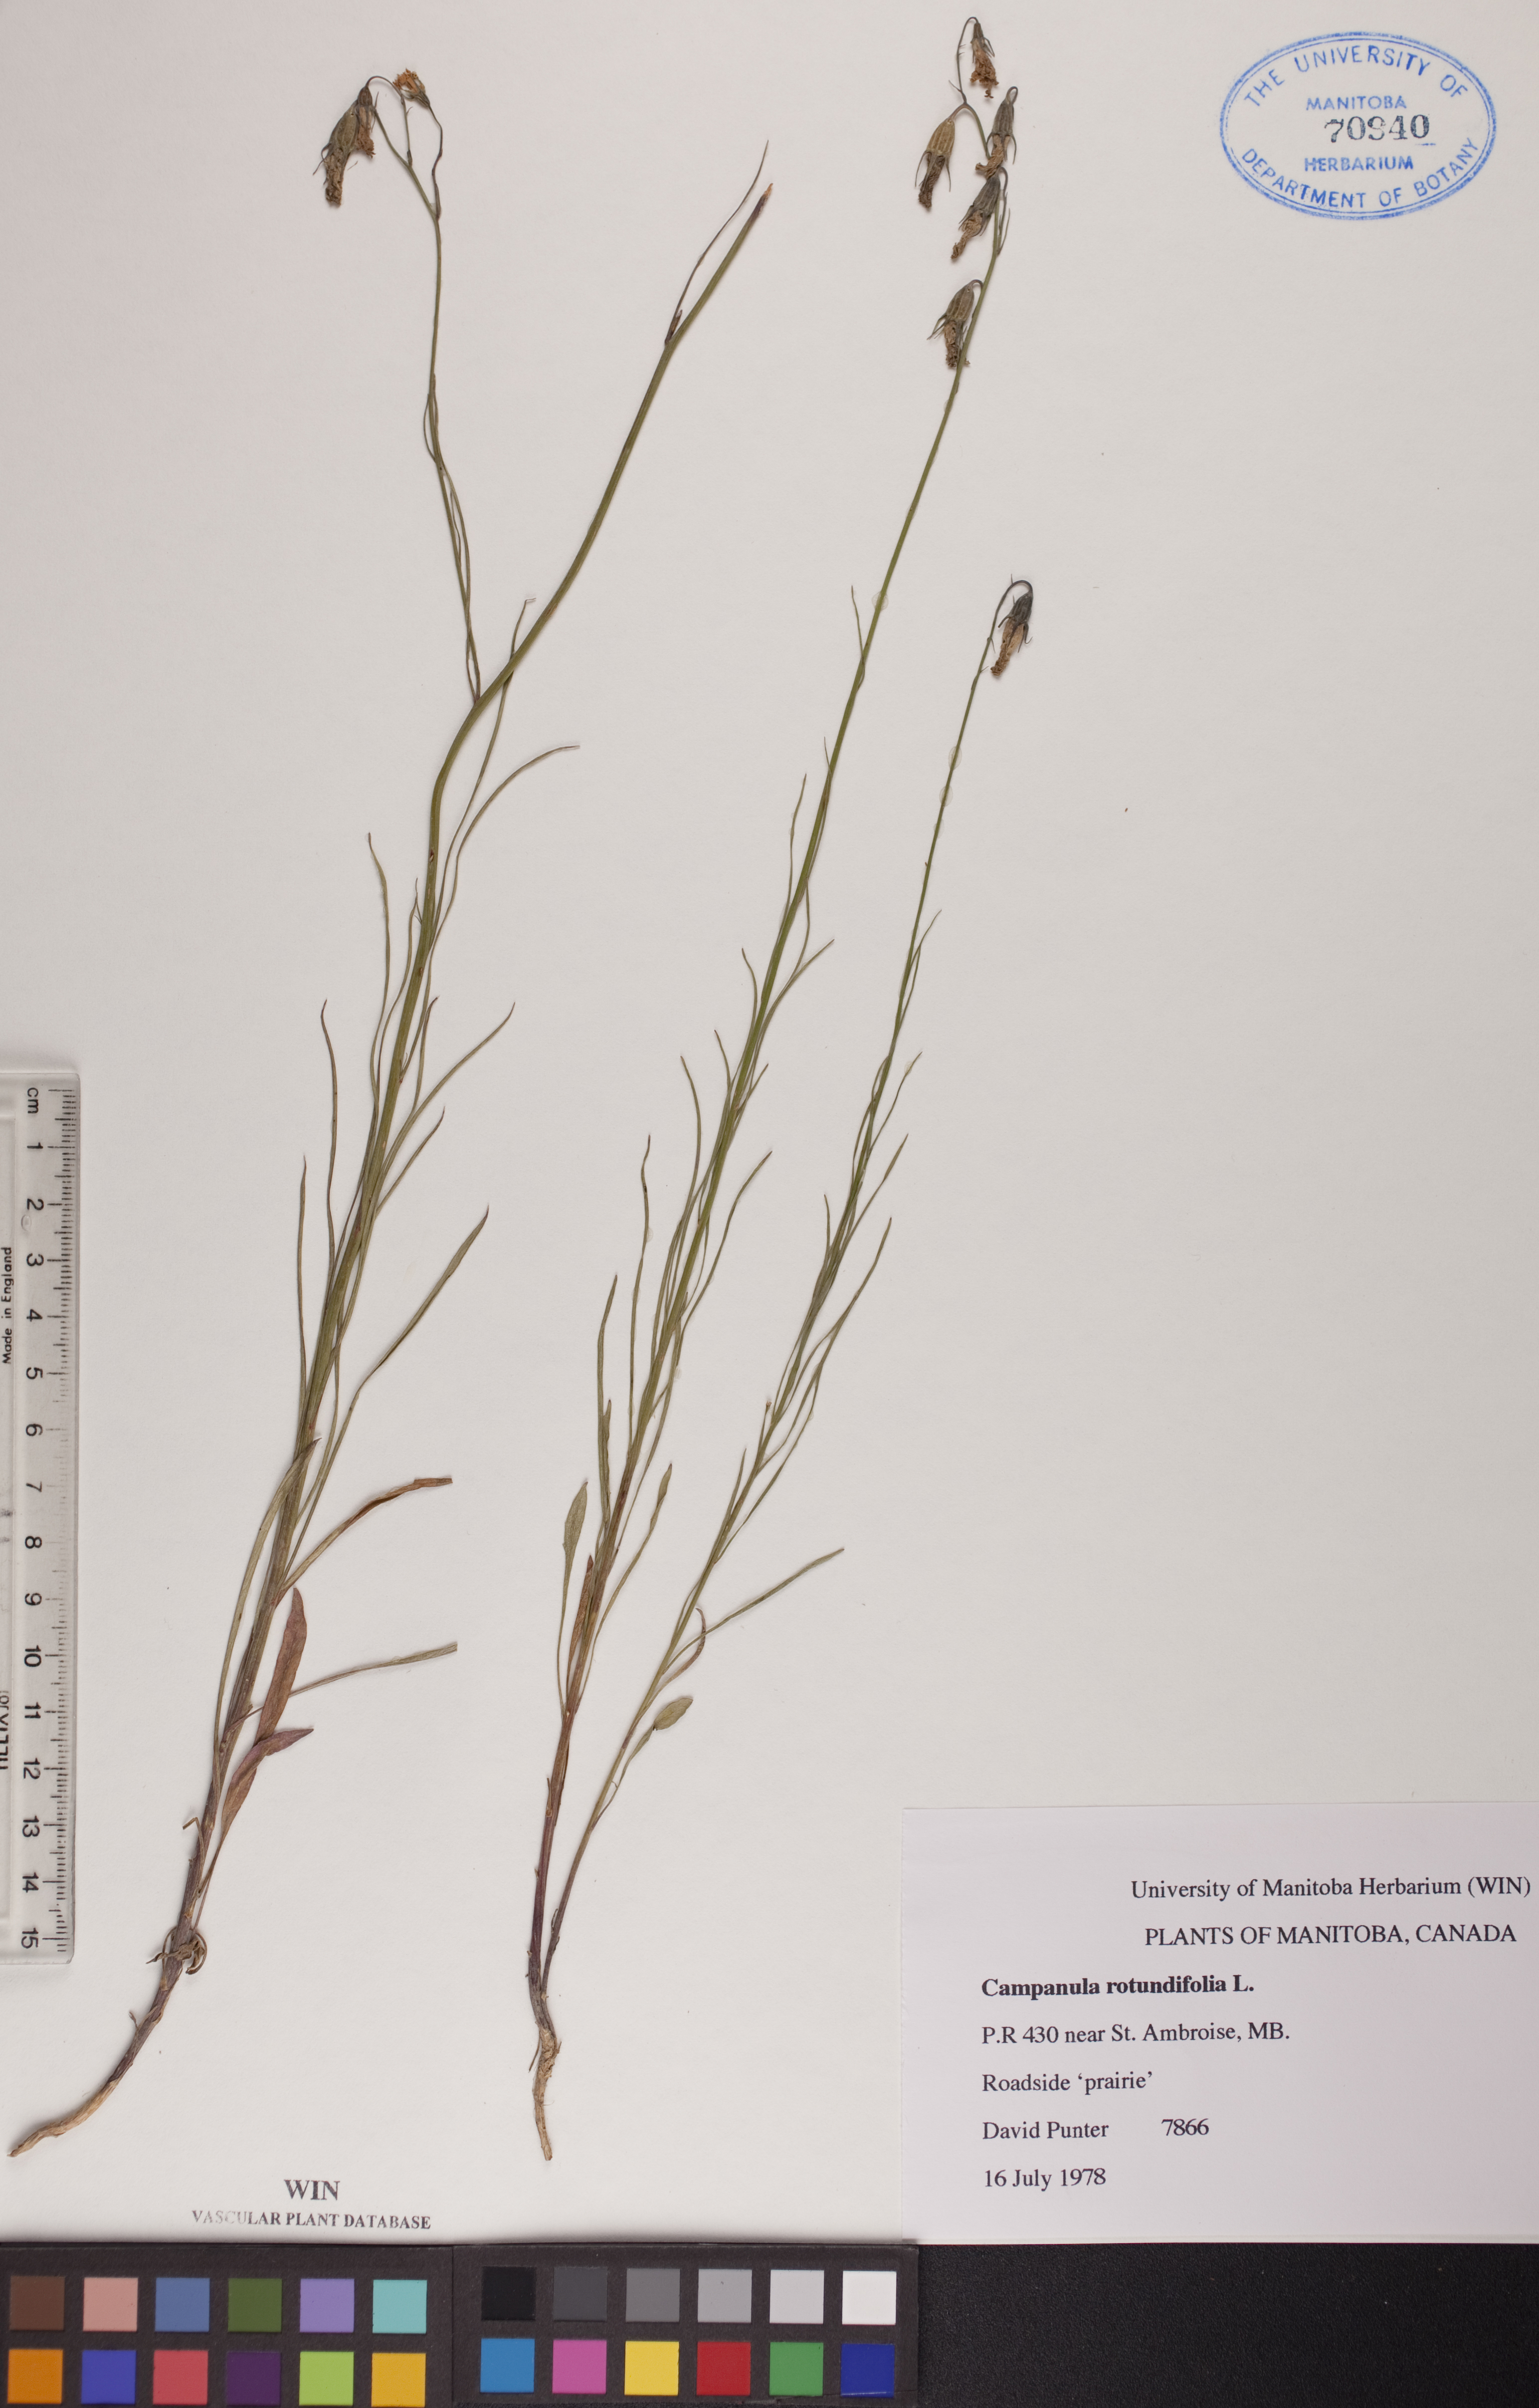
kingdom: Plantae
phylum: Tracheophyta
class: Magnoliopsida
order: Asterales
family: Campanulaceae
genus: Campanula
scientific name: Campanula rotundifolia
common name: Harebell
